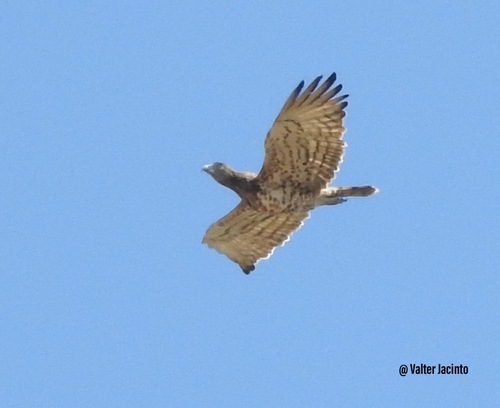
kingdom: Animalia
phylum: Chordata
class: Aves
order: Accipitriformes
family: Accipitridae
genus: Circaetus
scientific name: Circaetus gallicus
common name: Short-toed snake eagle
